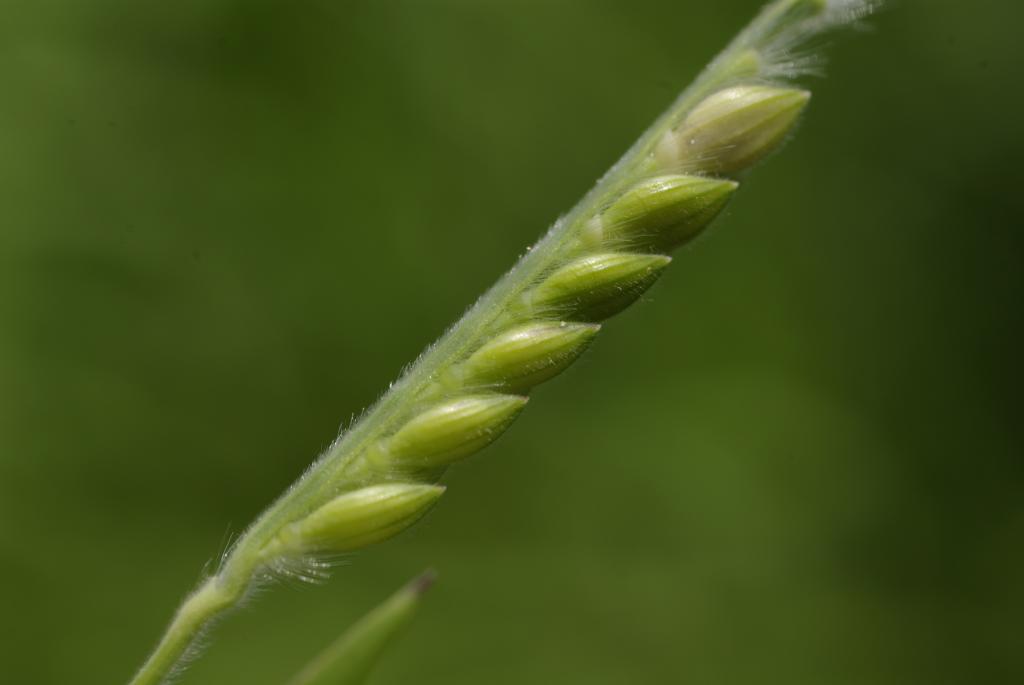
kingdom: Plantae
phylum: Tracheophyta
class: Liliopsida
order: Poales
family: Poaceae
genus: Eriochloa
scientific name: Eriochloa villosa
